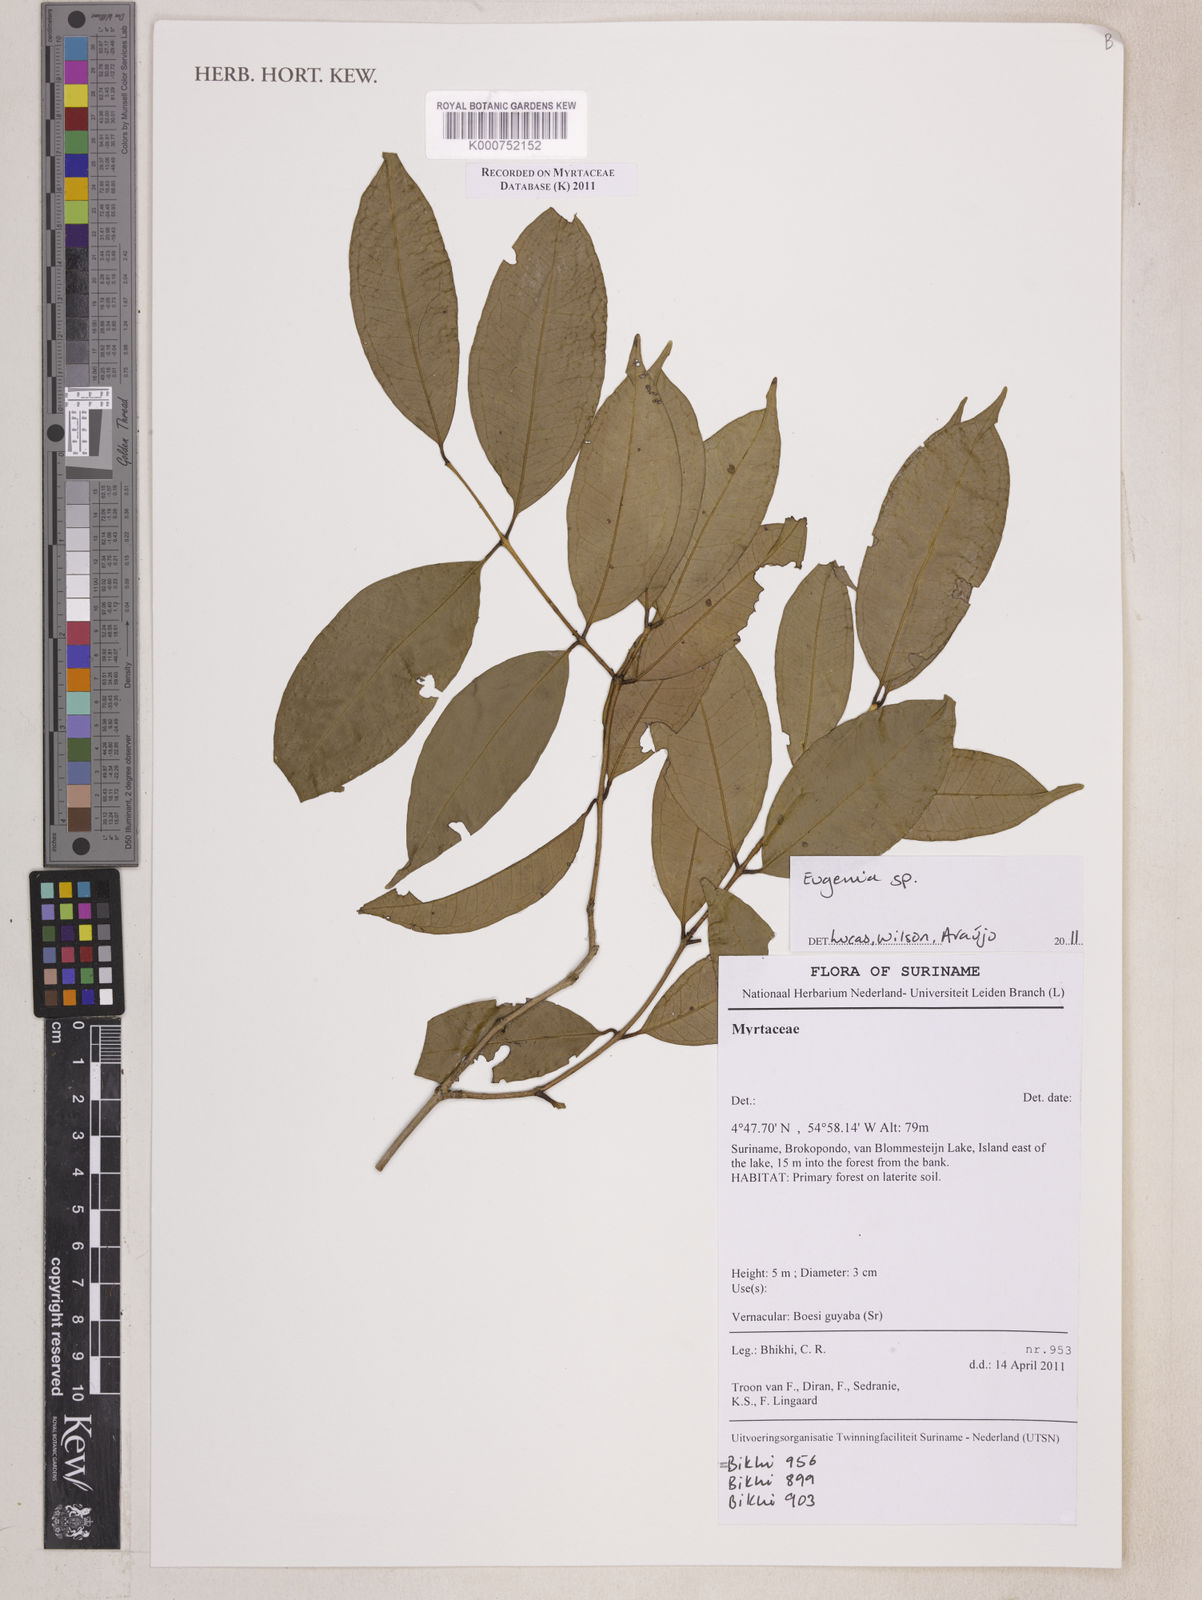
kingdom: Plantae
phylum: Tracheophyta
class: Magnoliopsida
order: Myrtales
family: Myrtaceae
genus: Eugenia
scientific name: Eugenia
